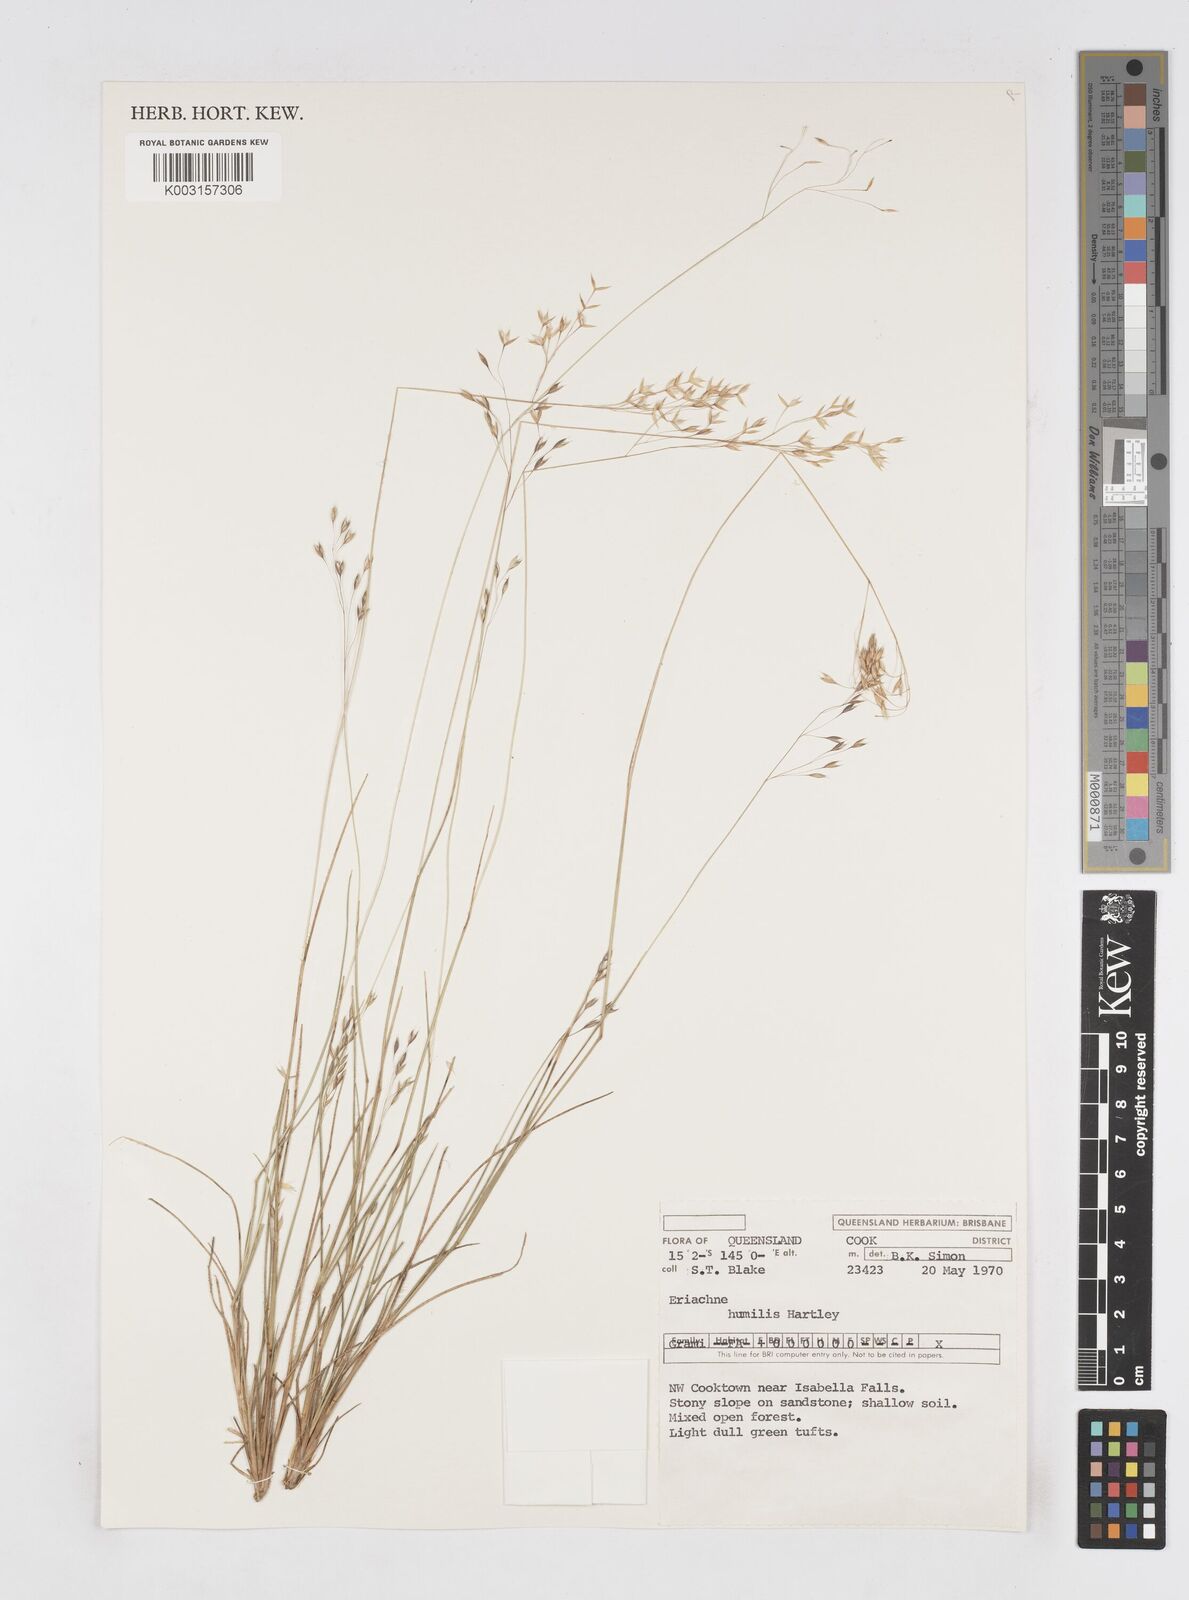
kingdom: Plantae
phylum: Tracheophyta
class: Liliopsida
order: Poales
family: Poaceae
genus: Eriachne
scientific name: Eriachne humilis
